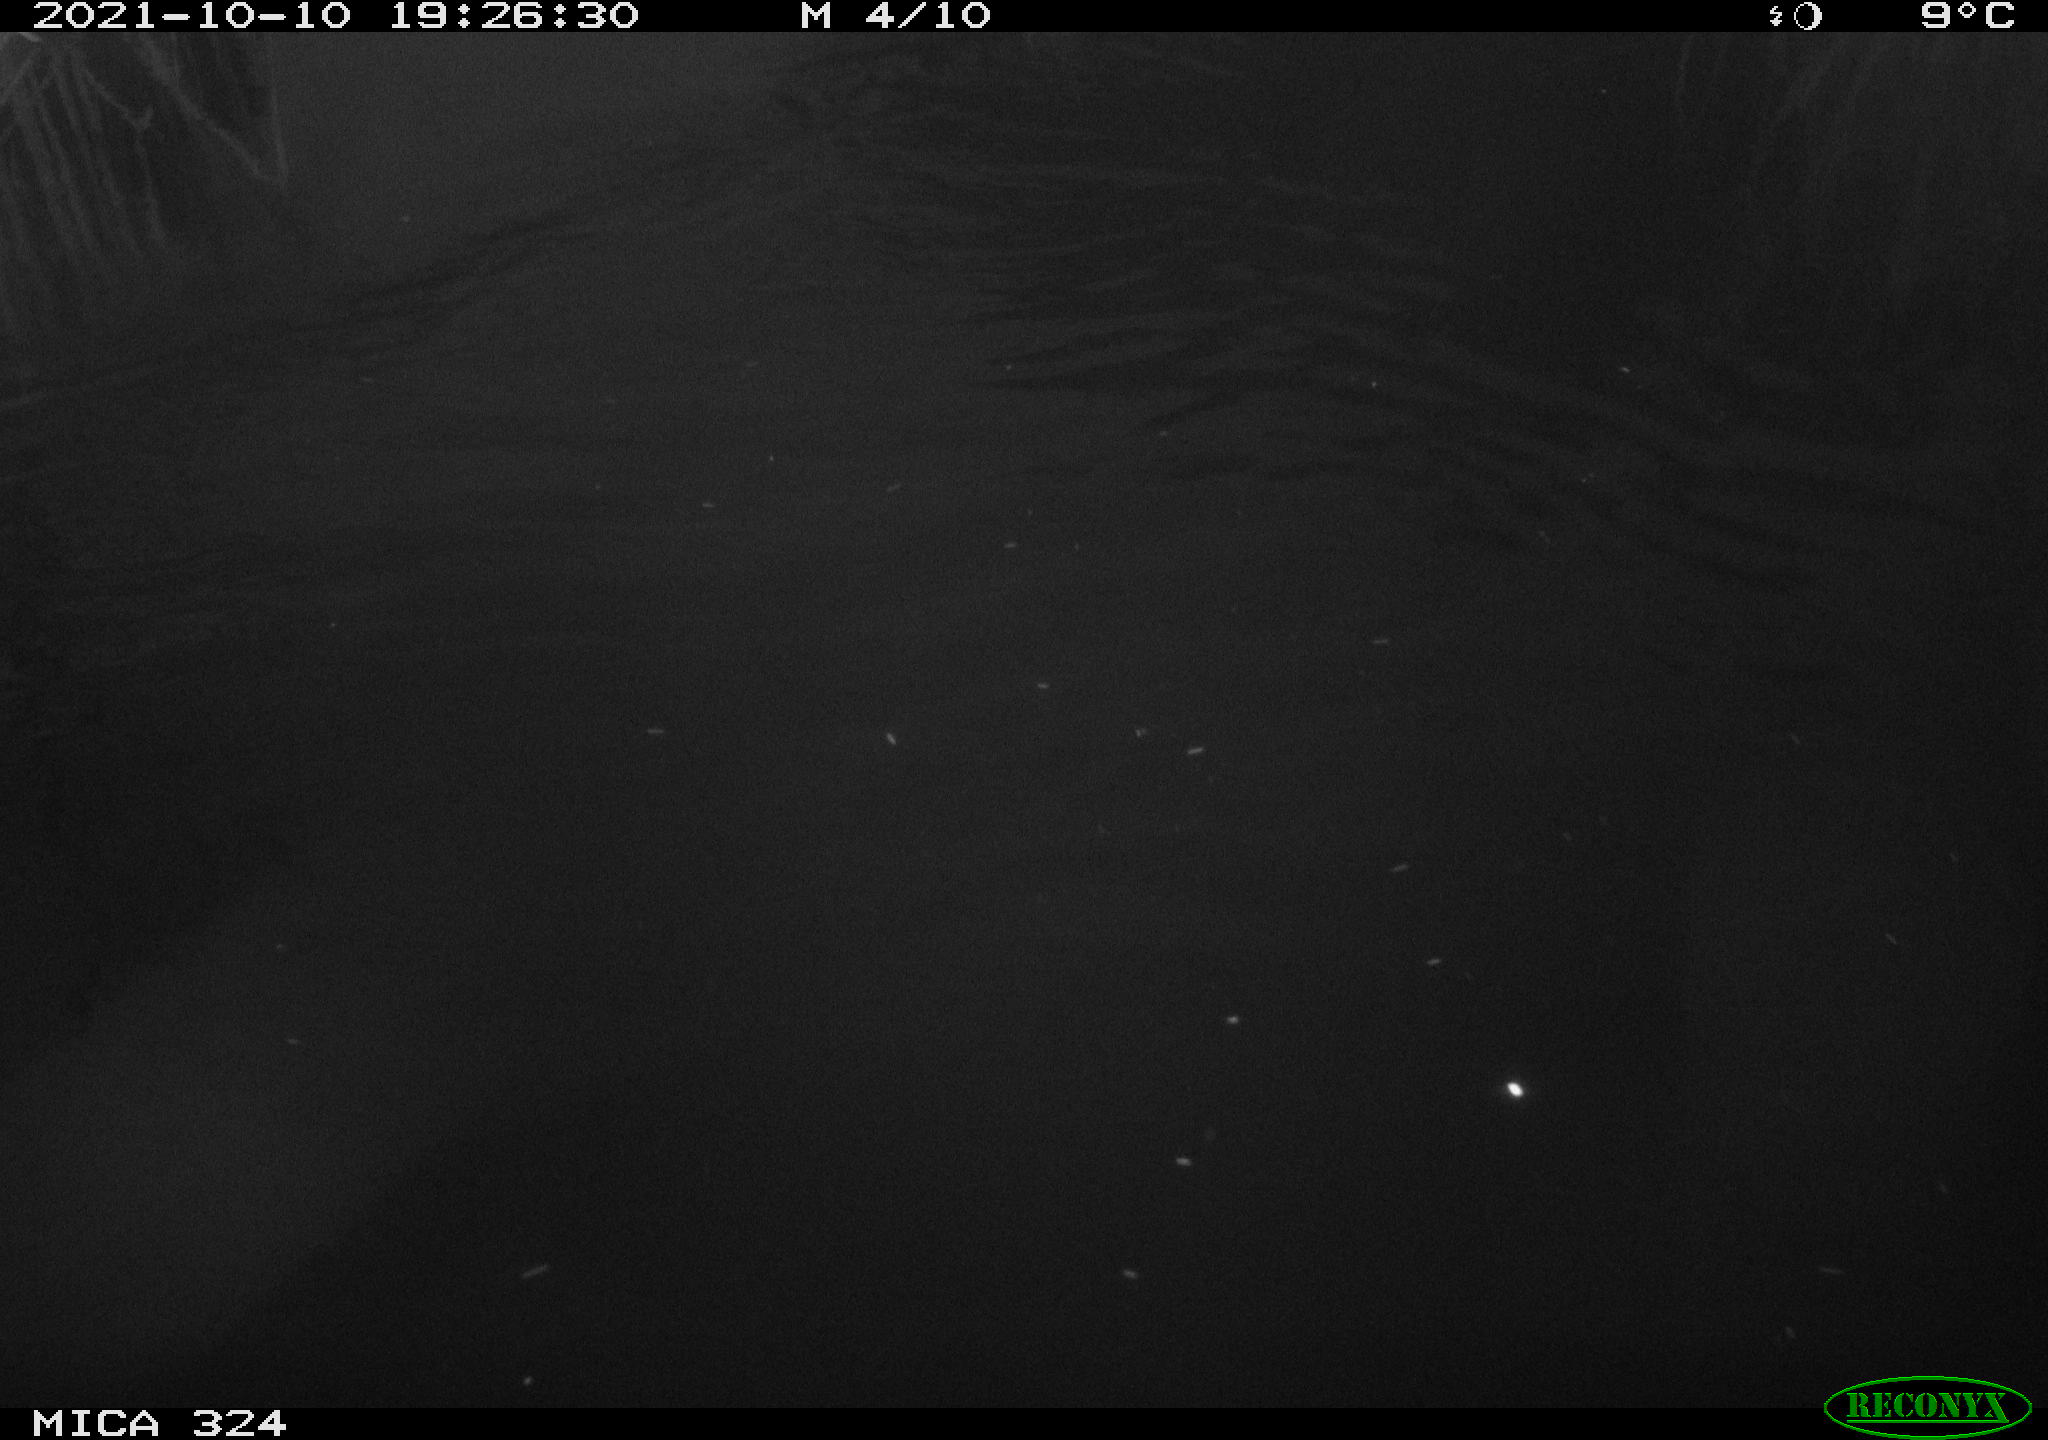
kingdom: Animalia
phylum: Chordata
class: Mammalia
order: Rodentia
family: Cricetidae
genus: Ondatra
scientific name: Ondatra zibethicus
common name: Muskrat
